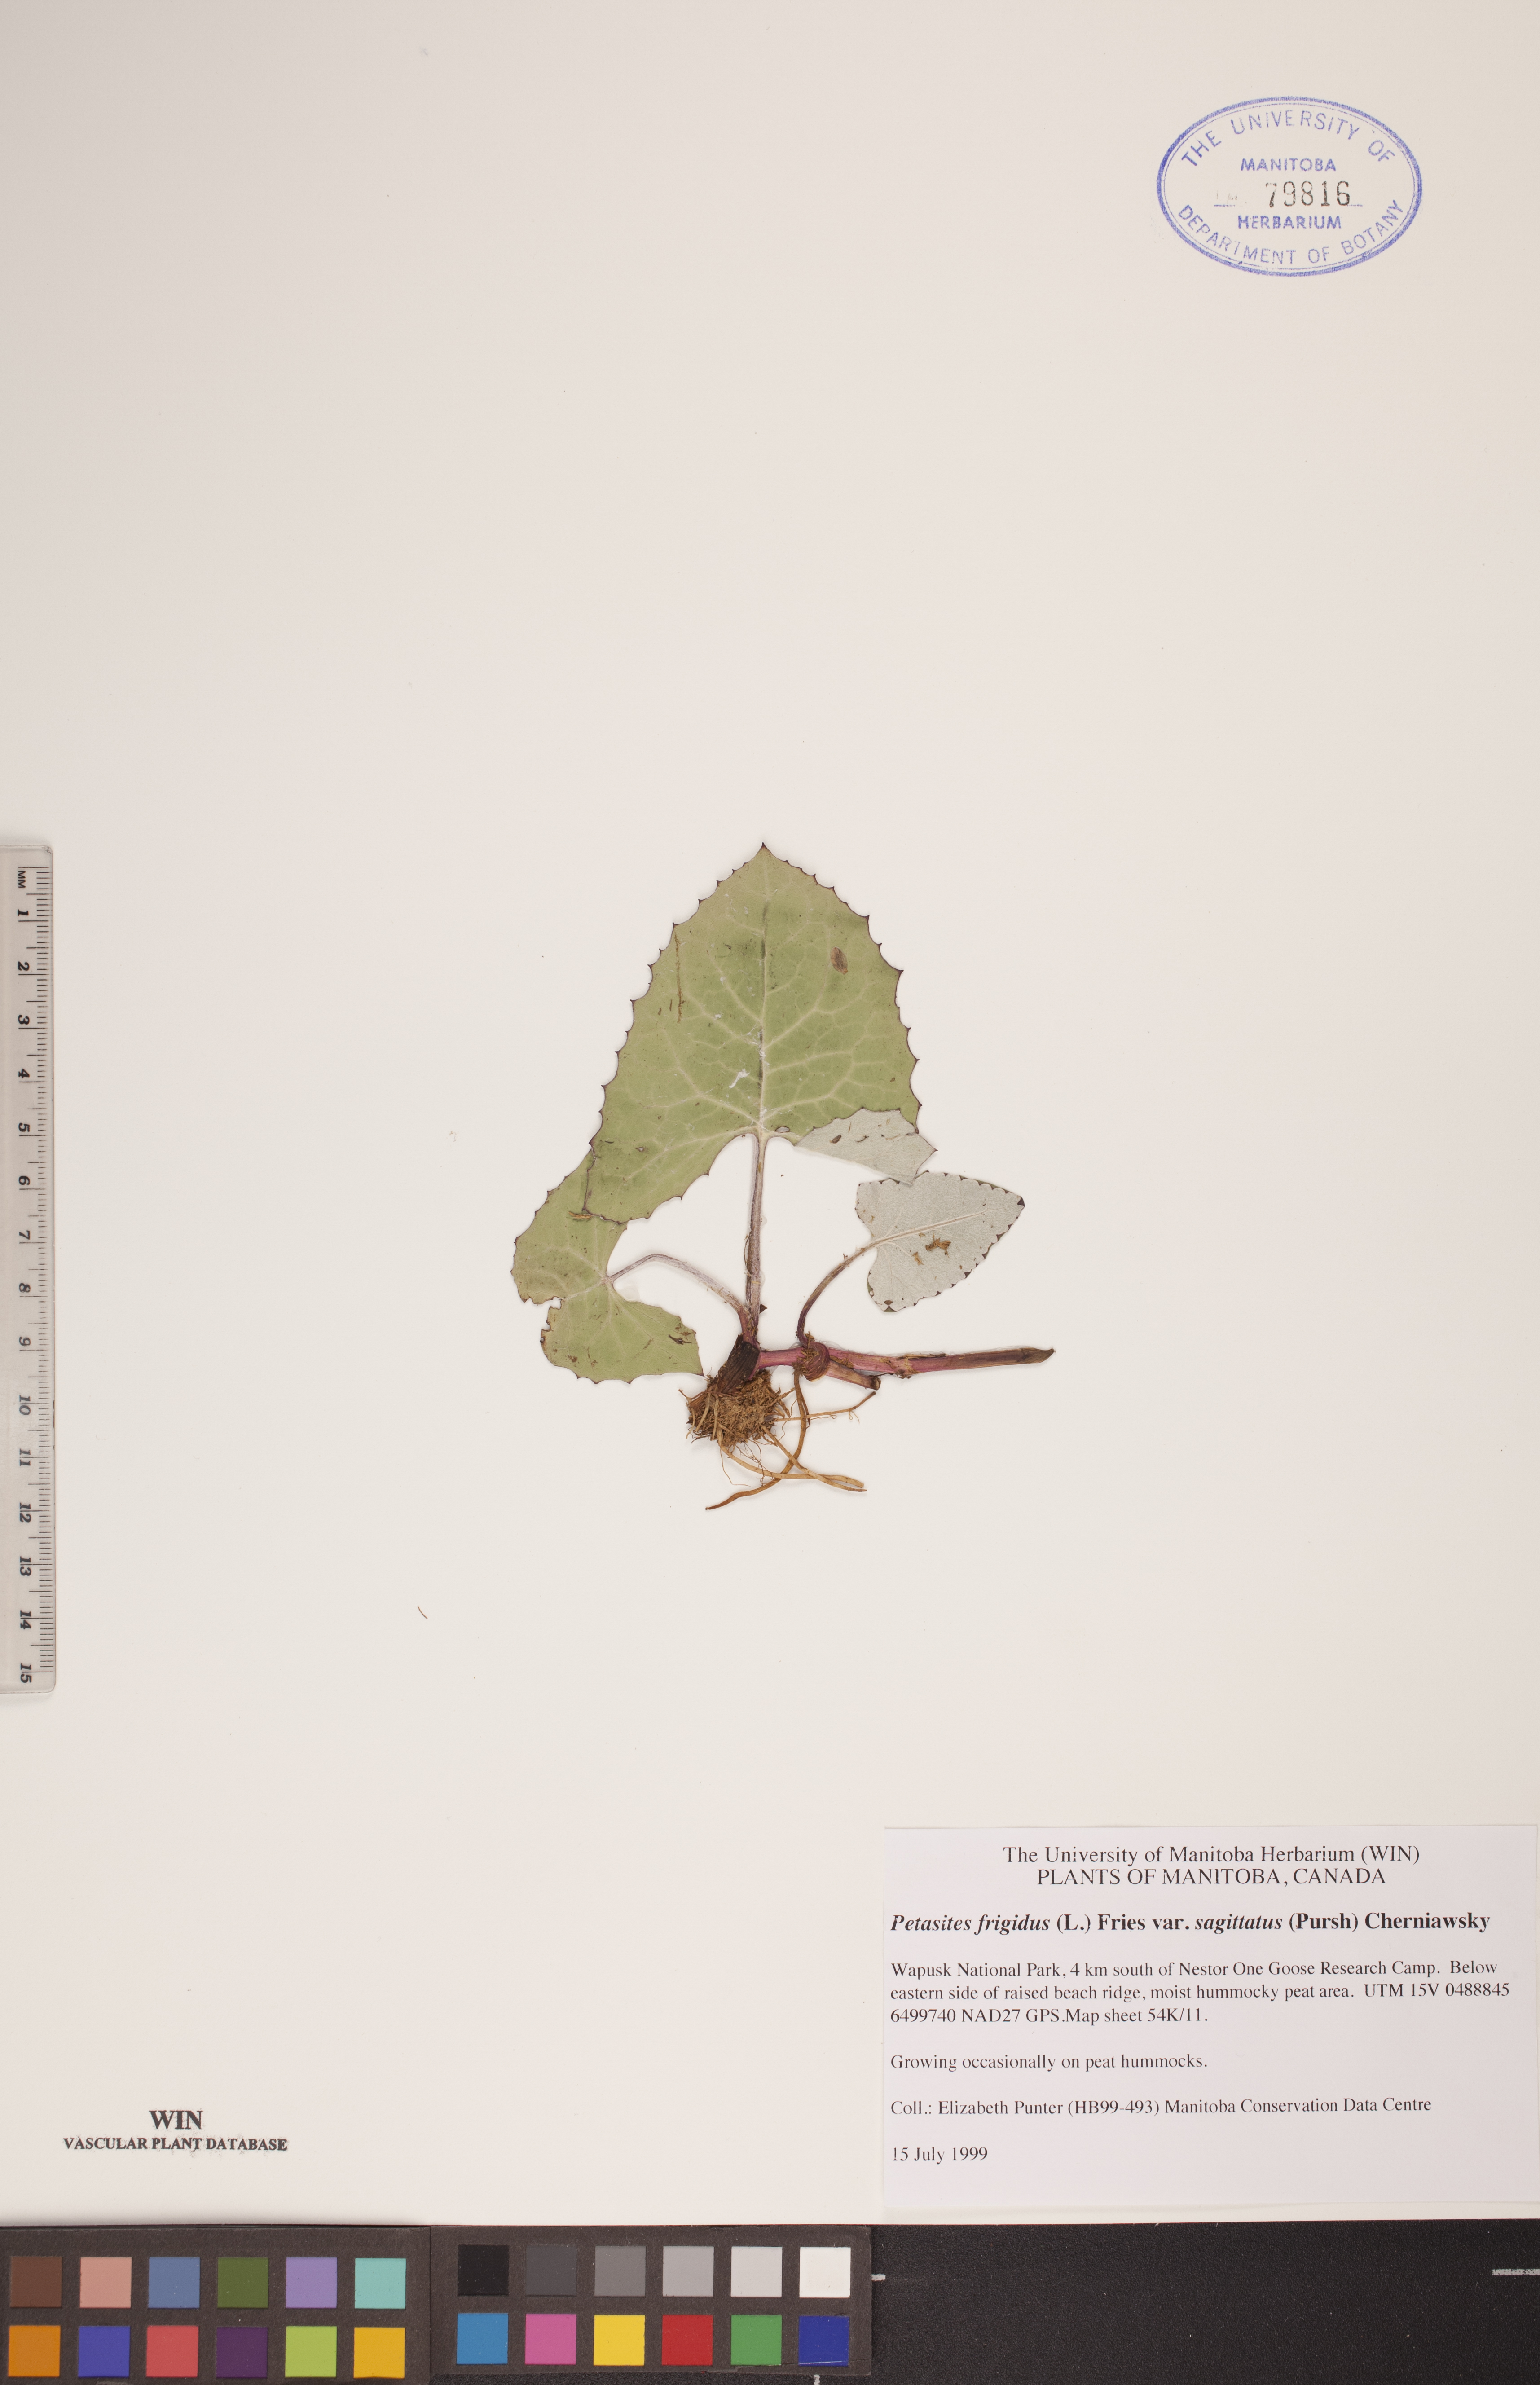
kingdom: Plantae
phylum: Tracheophyta
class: Magnoliopsida
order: Asterales
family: Asteraceae
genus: Petasites
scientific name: Petasites frigidus
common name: Arctic butterbur
